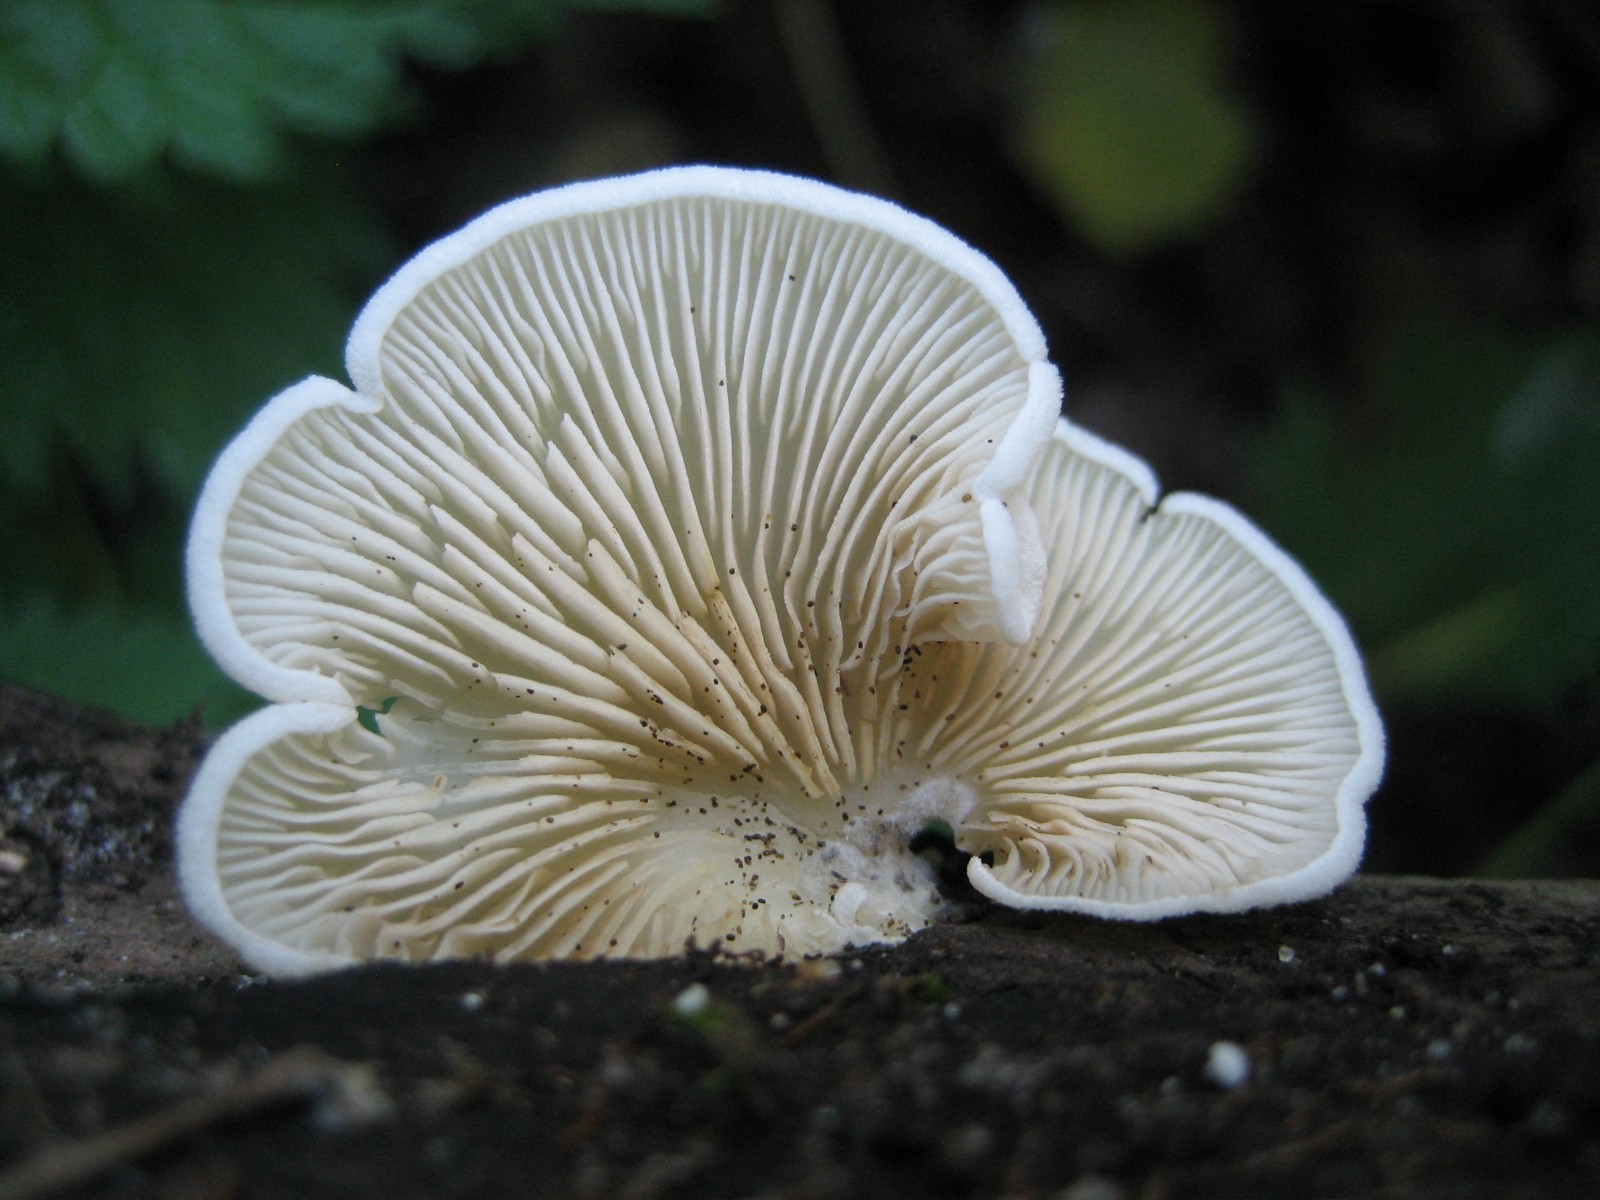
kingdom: Fungi
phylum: Basidiomycota
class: Agaricomycetes
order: Agaricales
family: Crepidotaceae
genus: Crepidotus
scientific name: Crepidotus
